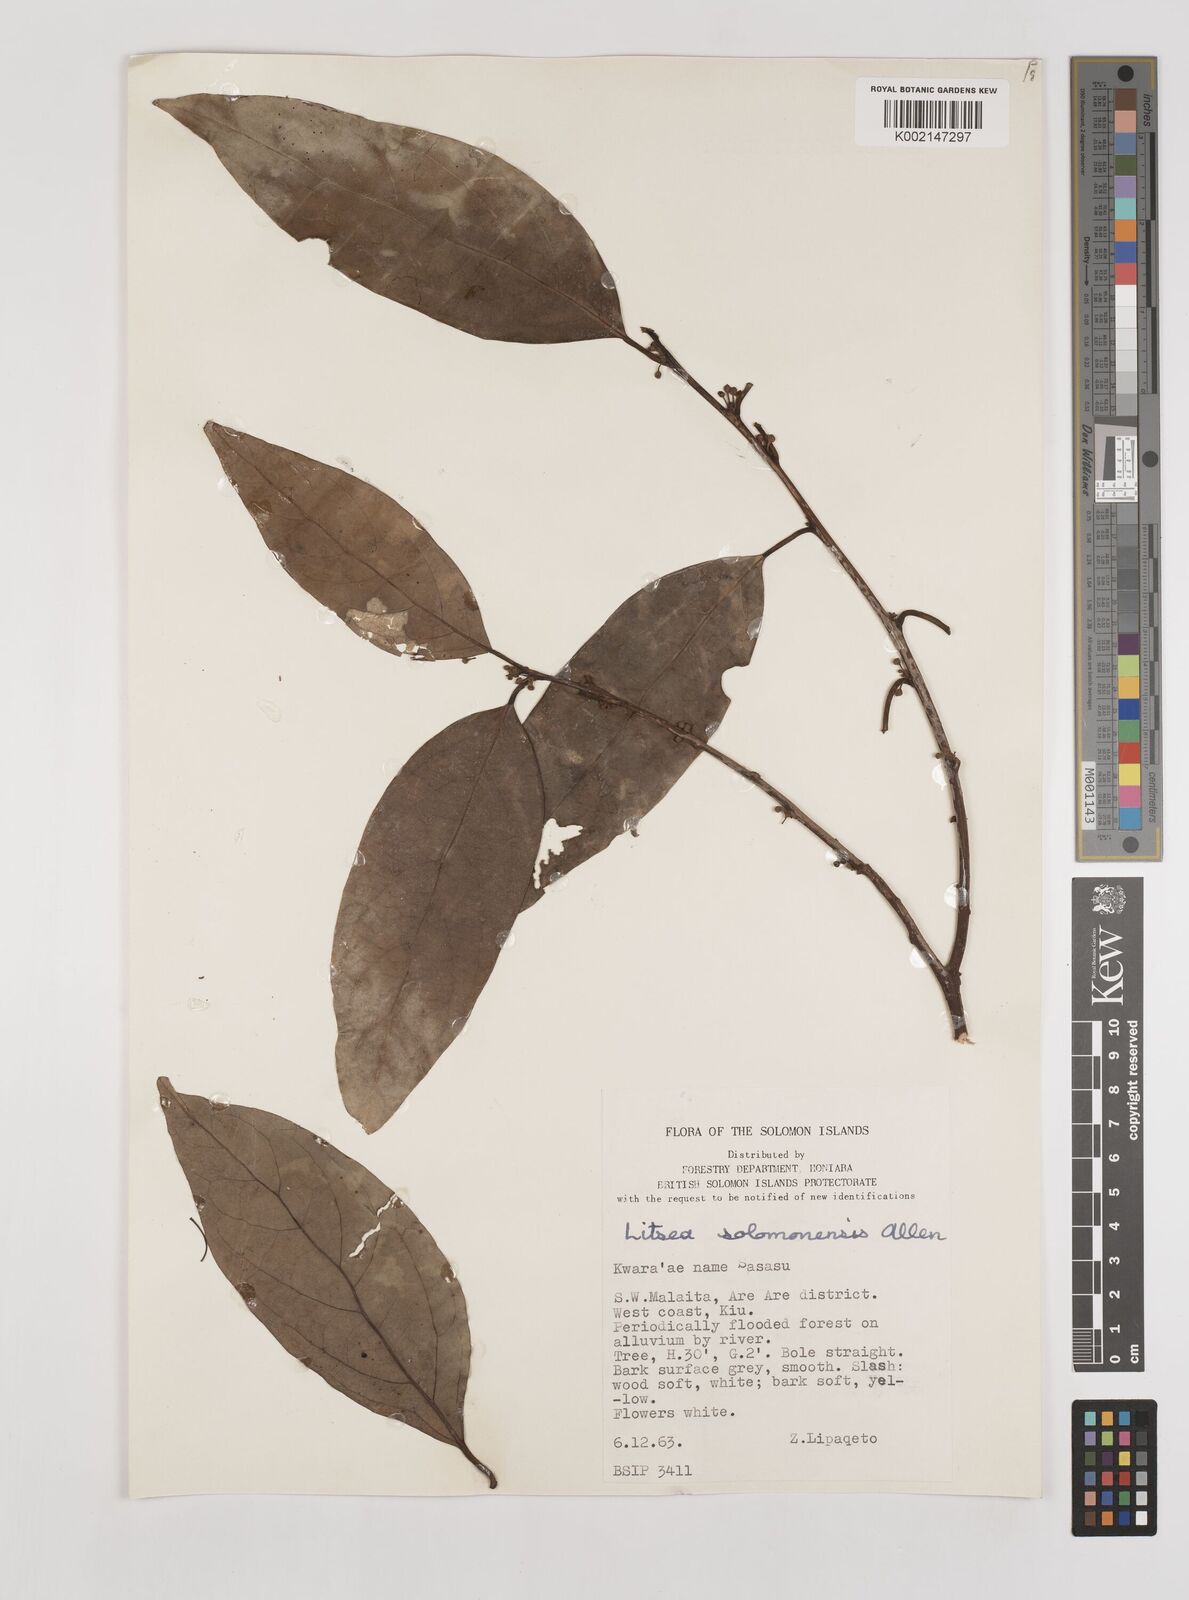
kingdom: Plantae
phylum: Tracheophyta
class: Magnoliopsida
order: Laurales
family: Lauraceae
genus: Litsea
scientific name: Litsea timoriana
